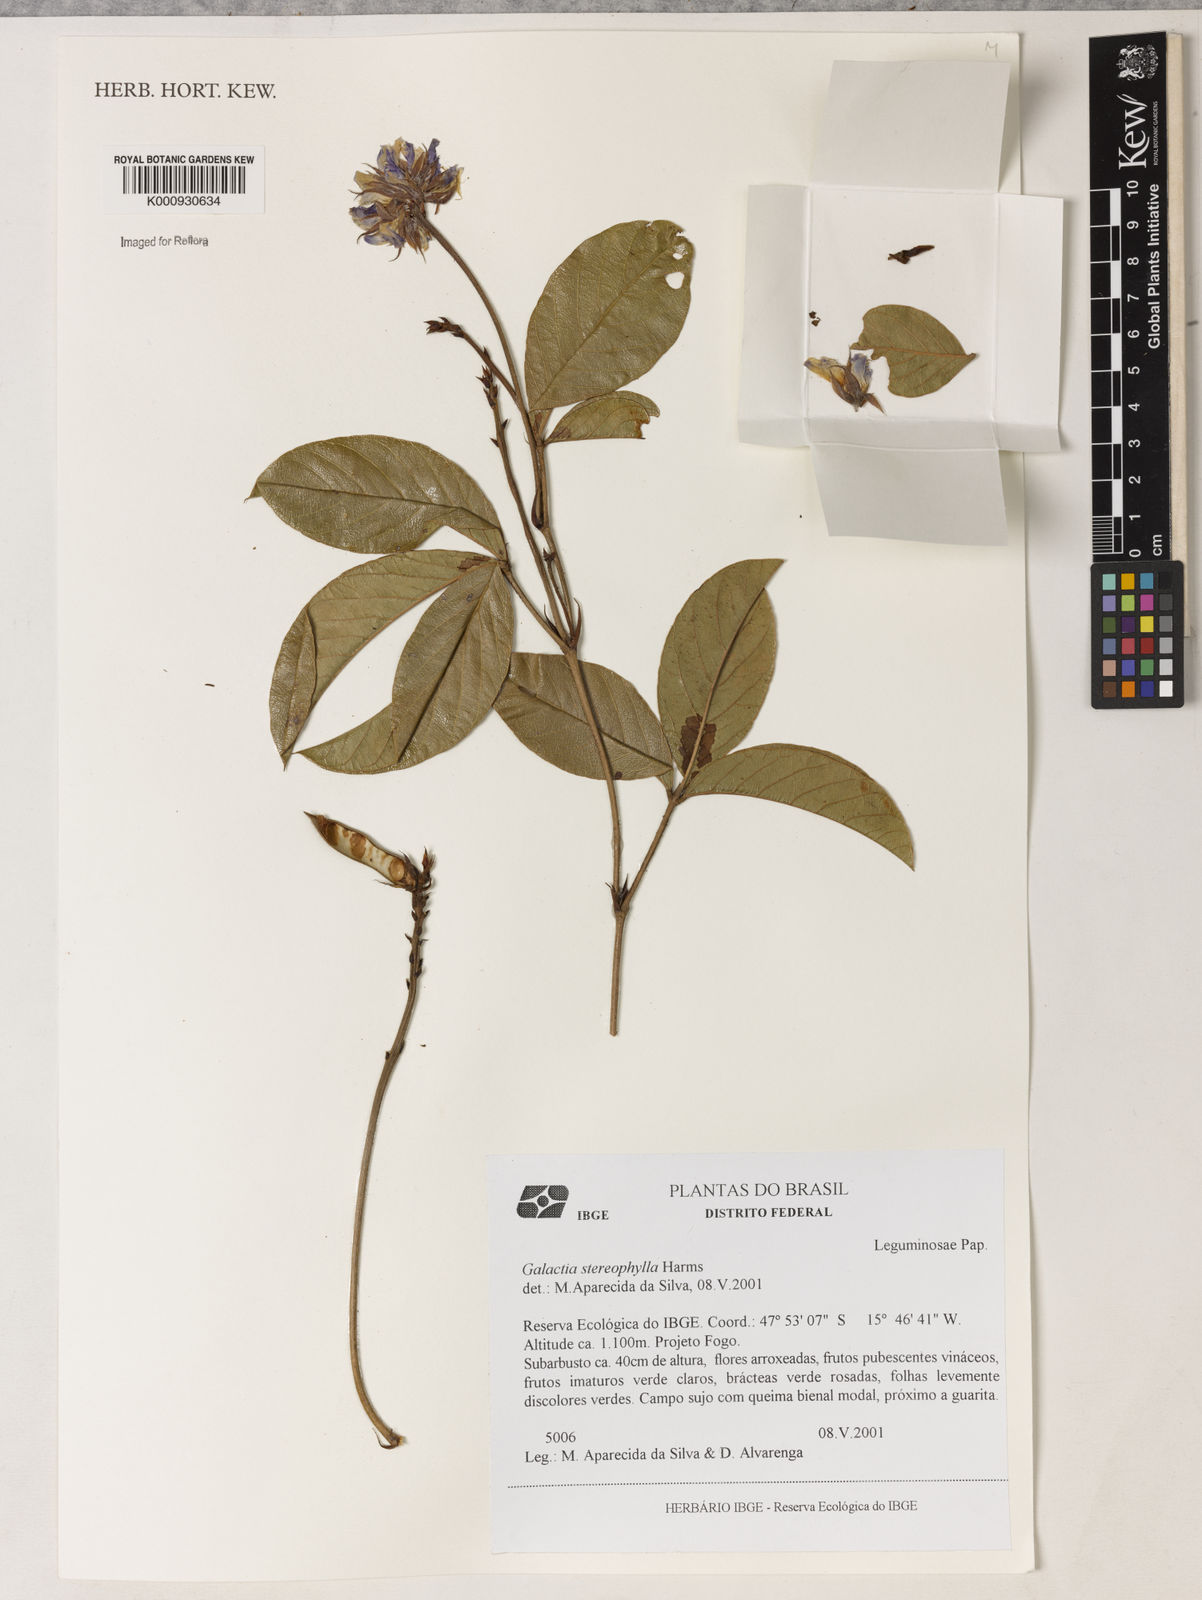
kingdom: Plantae
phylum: Tracheophyta
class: Magnoliopsida
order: Fabales
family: Fabaceae
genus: Betencourtia
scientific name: Betencourtia stereophylla
